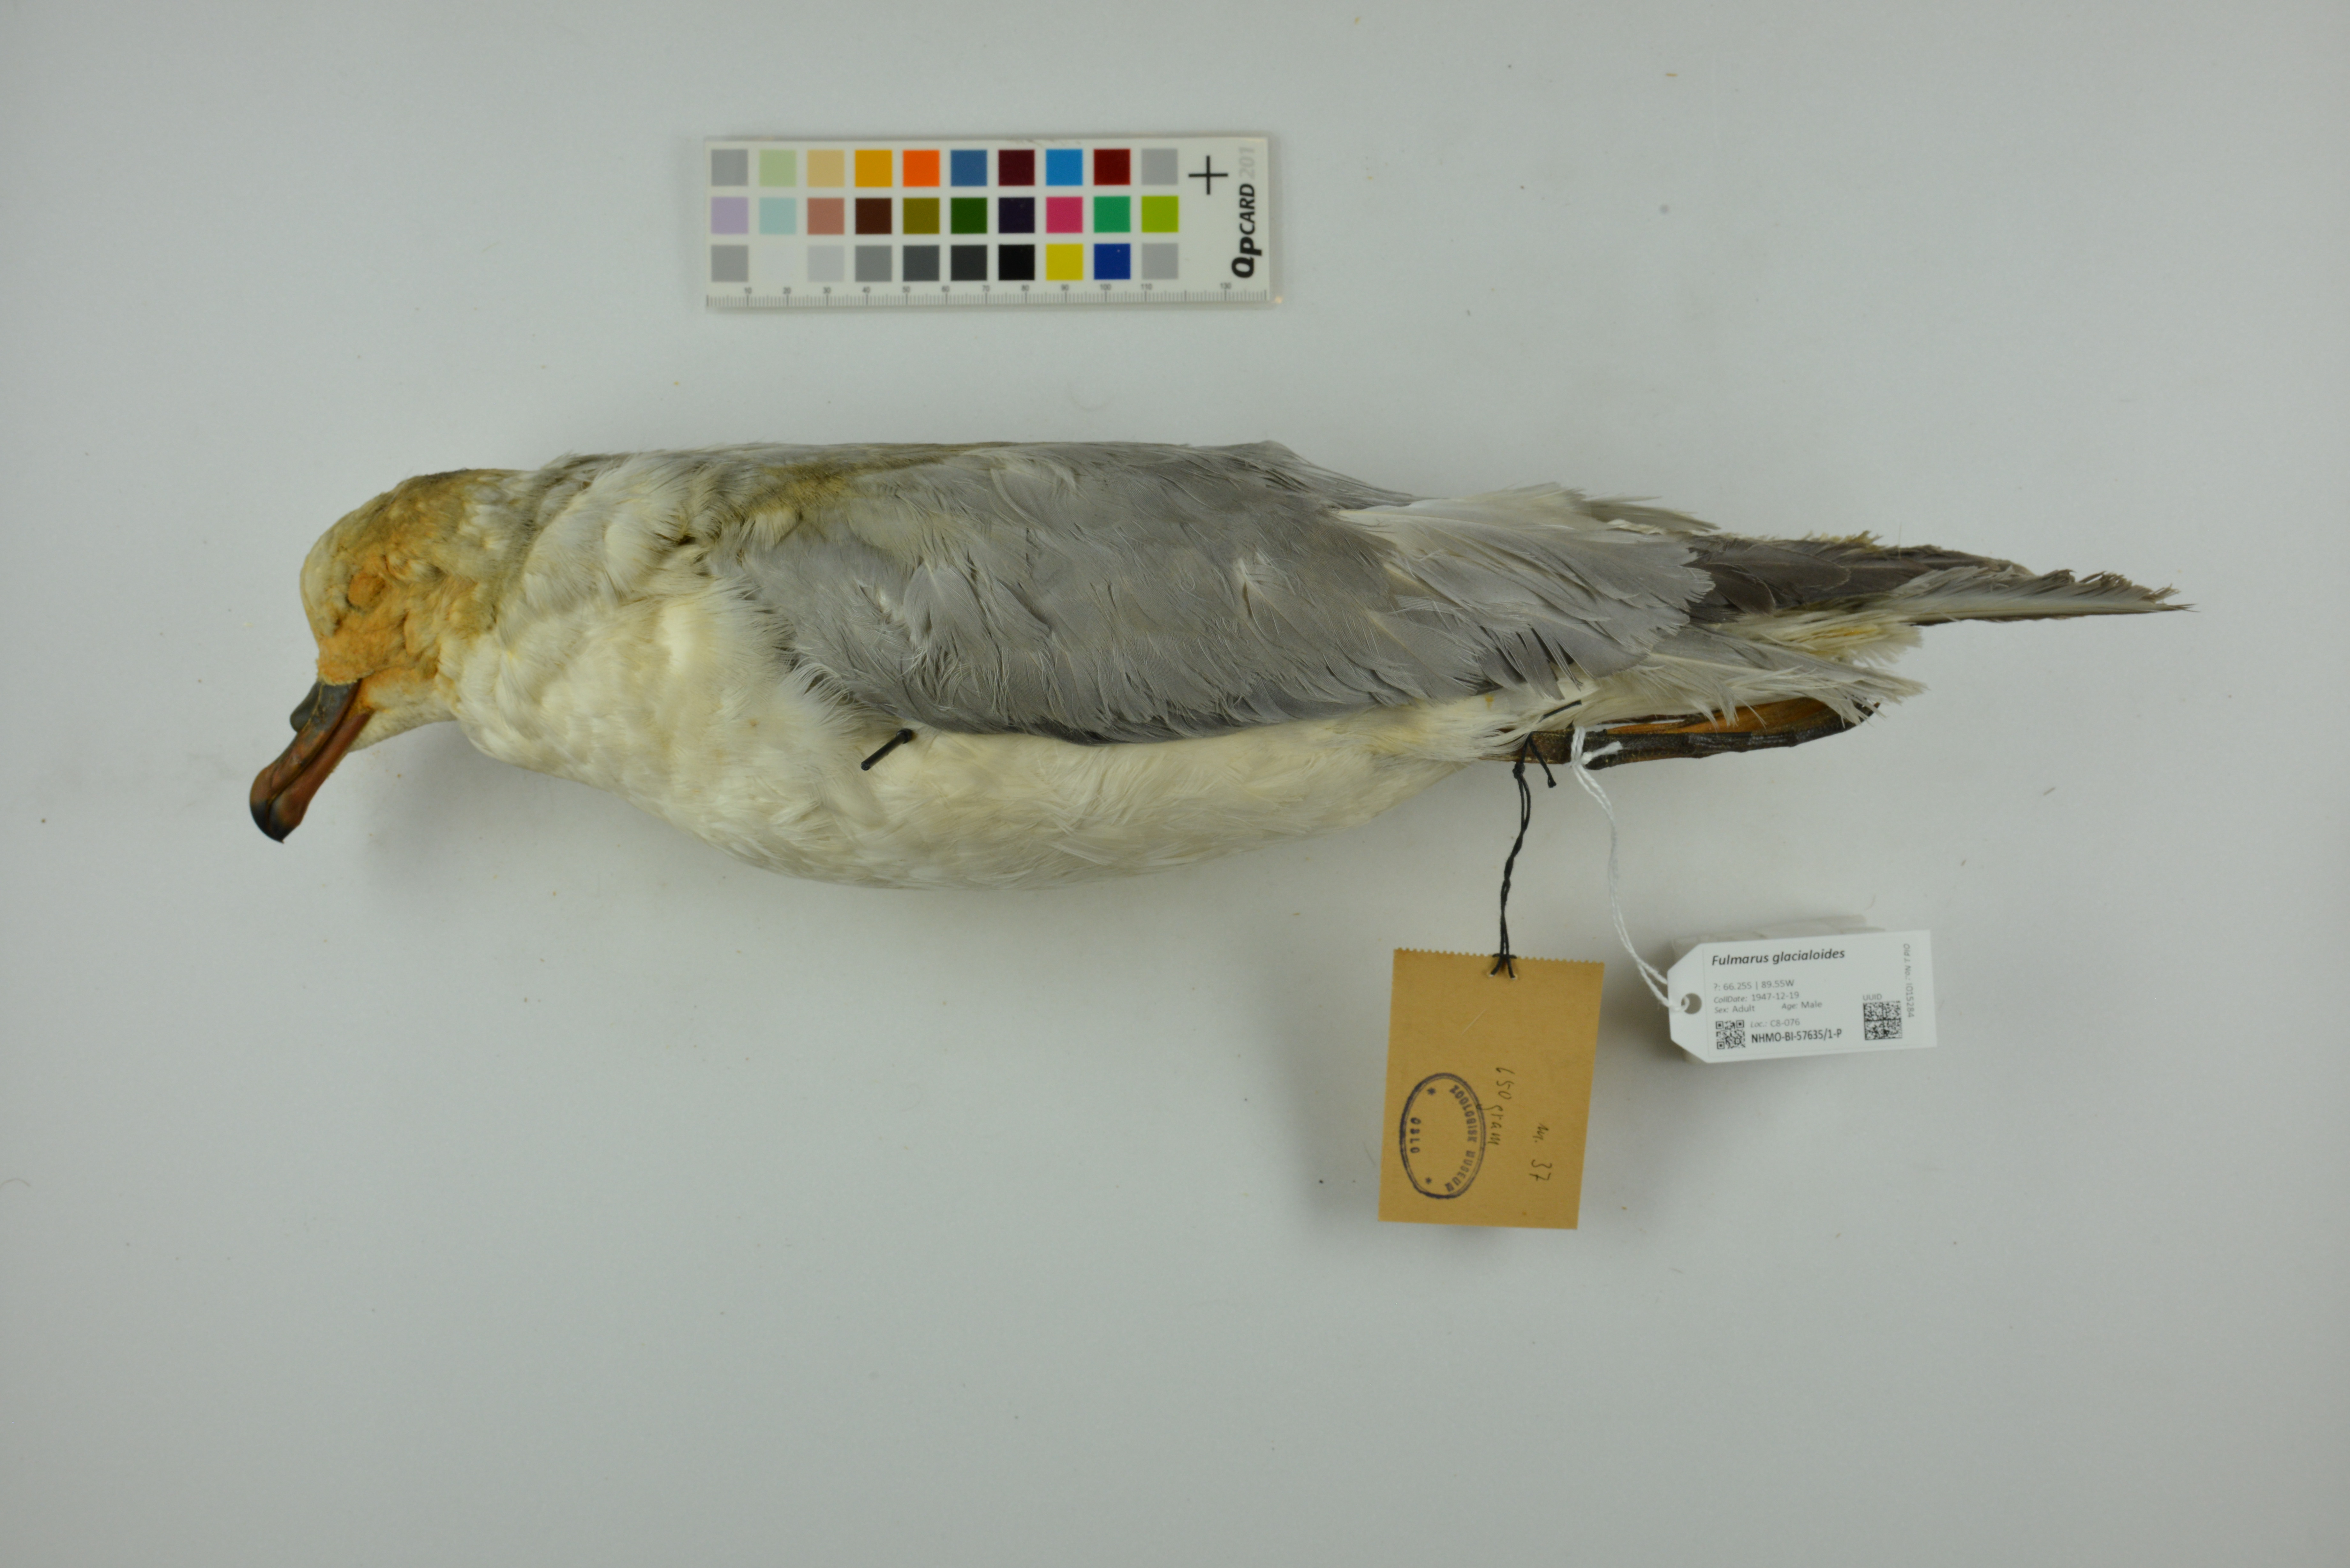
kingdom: Animalia
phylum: Chordata
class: Aves
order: Procellariiformes
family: Procellariidae
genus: Fulmarus
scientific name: Fulmarus glacialoides
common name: Southern fulmar
